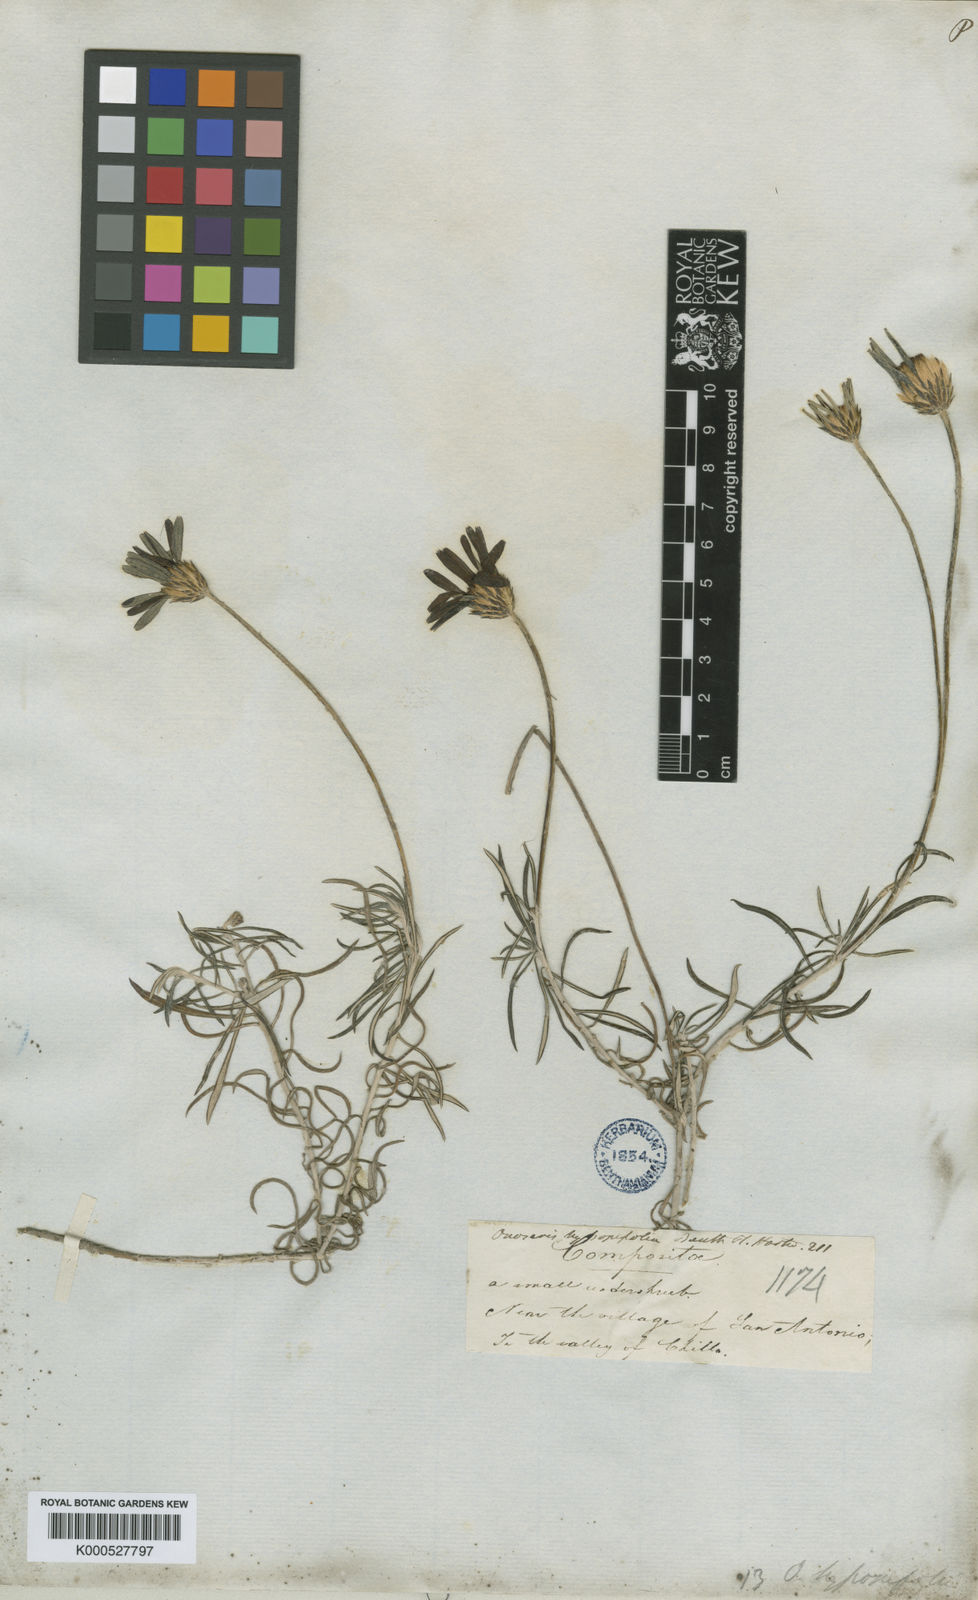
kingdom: Plantae
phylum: Tracheophyta
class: Magnoliopsida
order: Asterales
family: Asteraceae
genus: Onoseris
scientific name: Onoseris hyssopifolia
